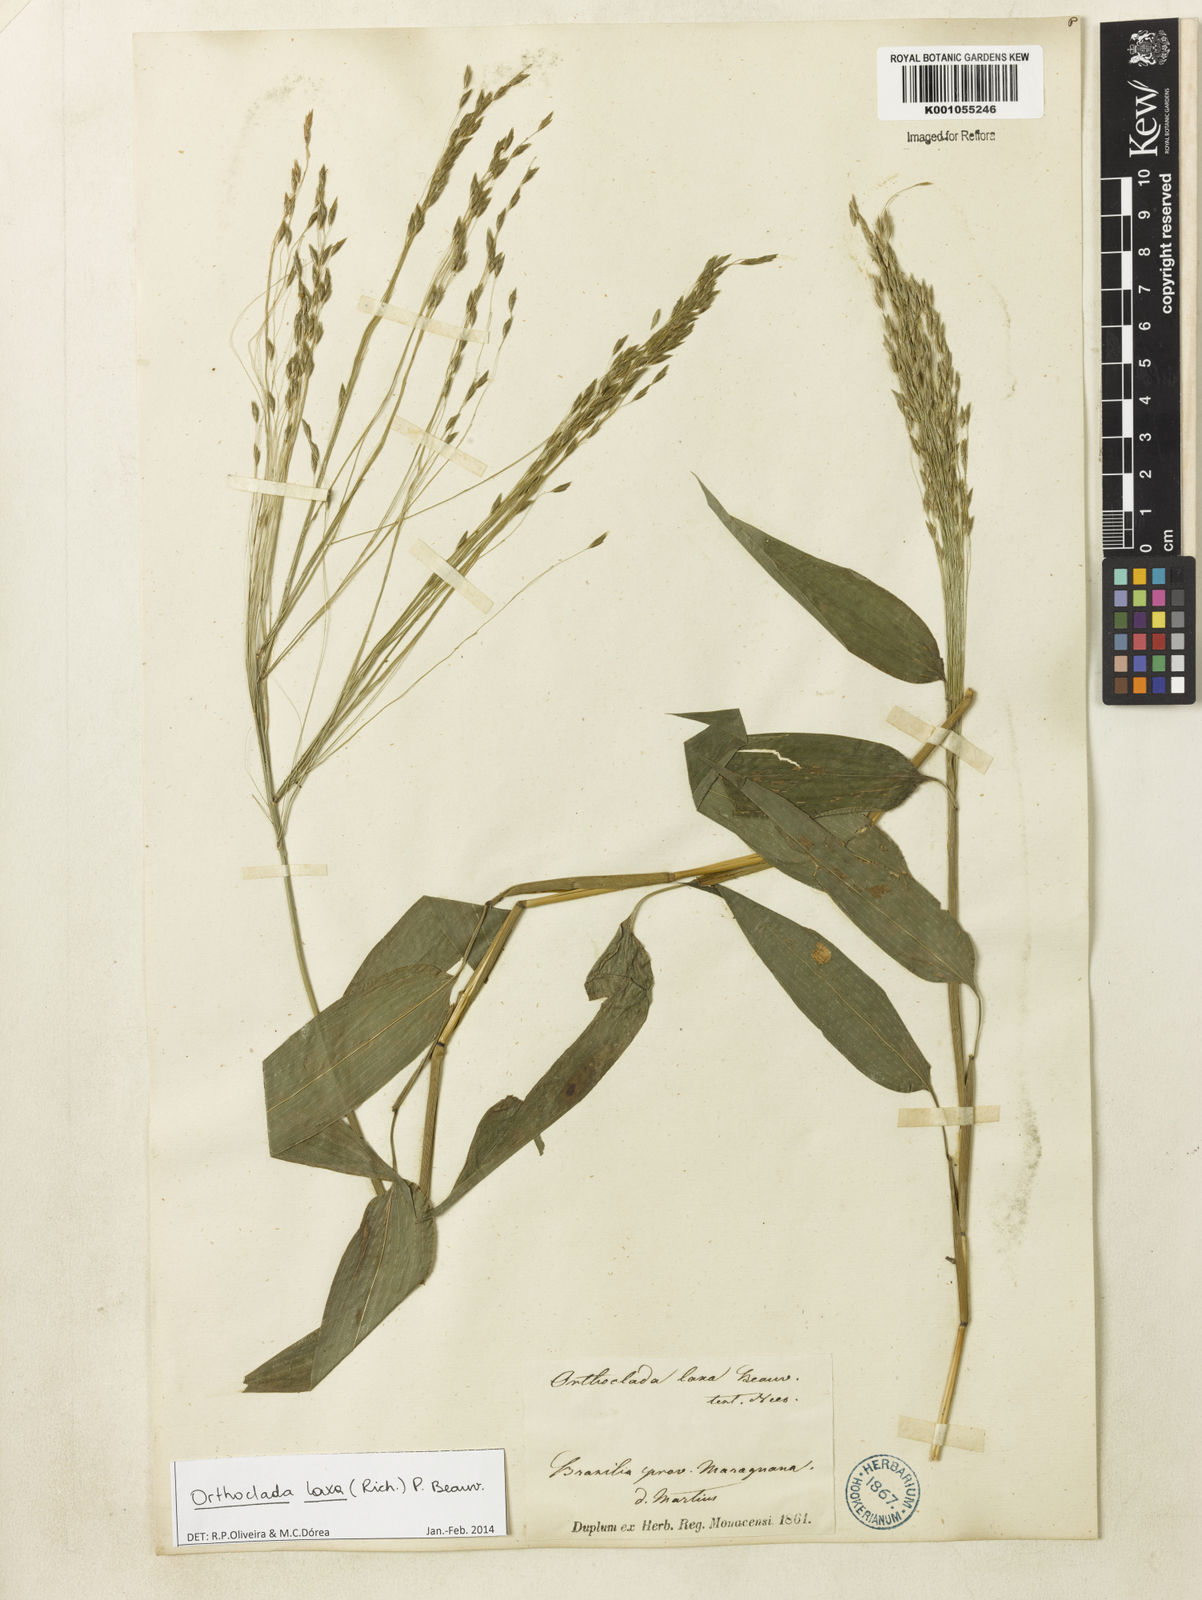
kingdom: Plantae
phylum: Tracheophyta
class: Liliopsida
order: Poales
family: Poaceae
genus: Orthoclada
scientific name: Orthoclada laxa
